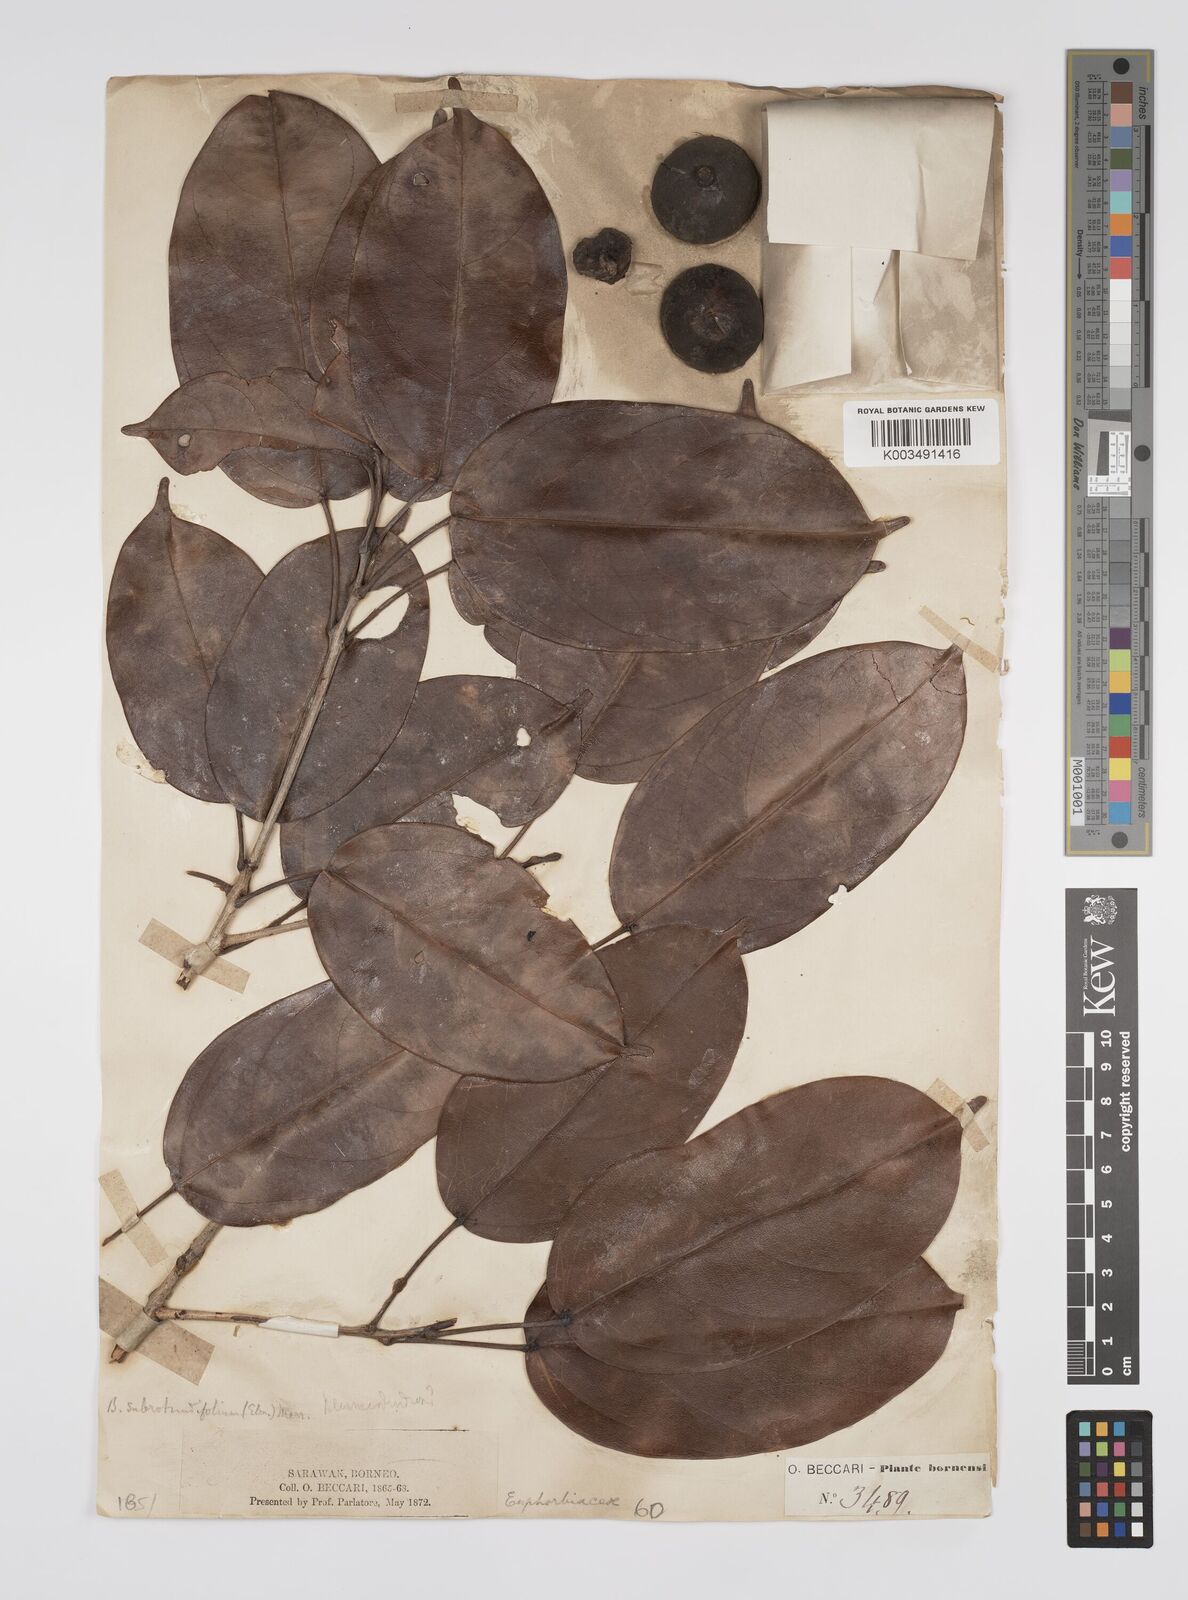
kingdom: Plantae
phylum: Tracheophyta
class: Magnoliopsida
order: Malpighiales
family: Euphorbiaceae
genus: Blumeodendron
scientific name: Blumeodendron subrotundifolium
